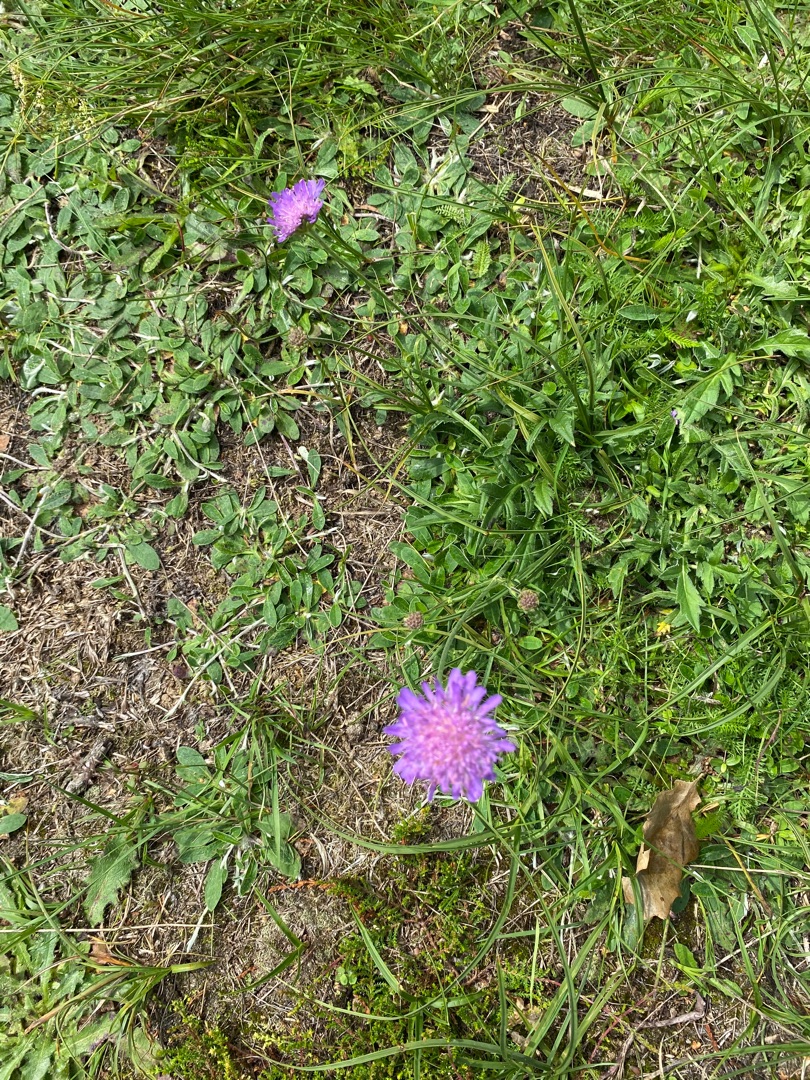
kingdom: Plantae
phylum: Tracheophyta
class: Magnoliopsida
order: Dipsacales
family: Caprifoliaceae
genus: Knautia
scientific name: Knautia arvensis
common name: Blåhat
